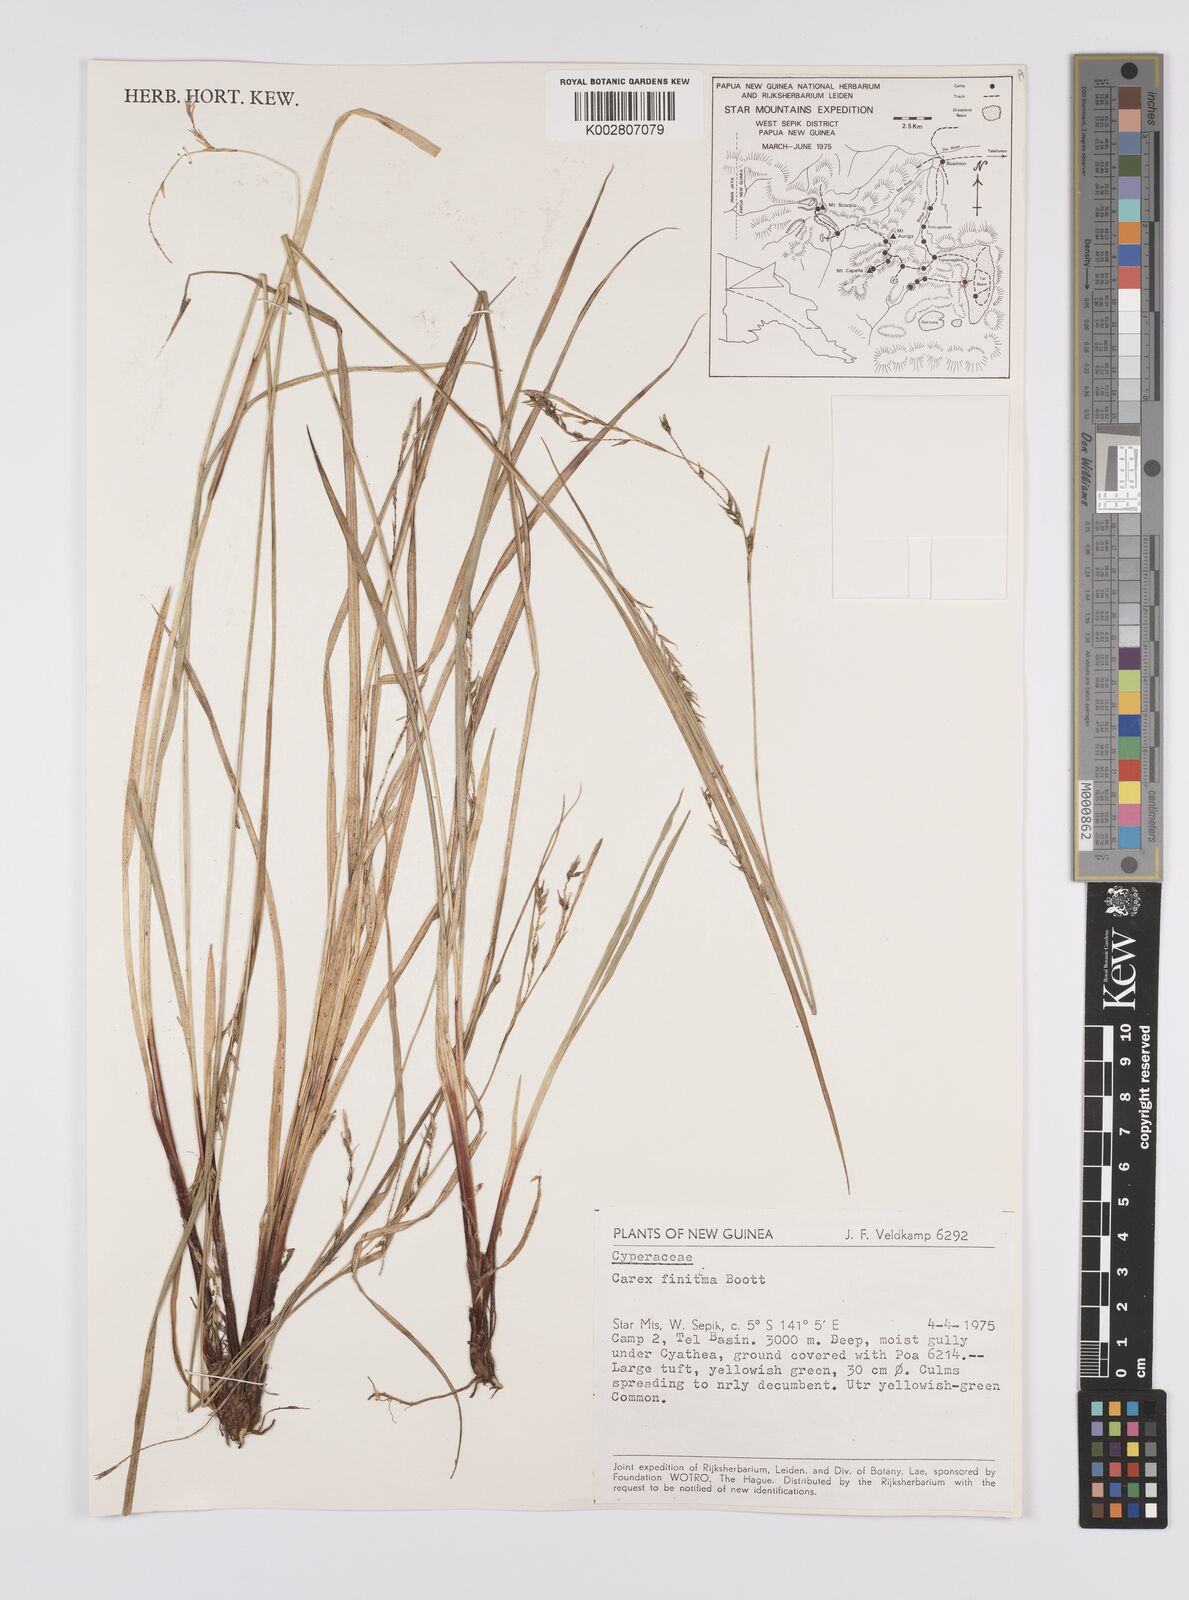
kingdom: Plantae
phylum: Tracheophyta
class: Liliopsida
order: Poales
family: Cyperaceae
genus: Carex
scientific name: Carex finitima
